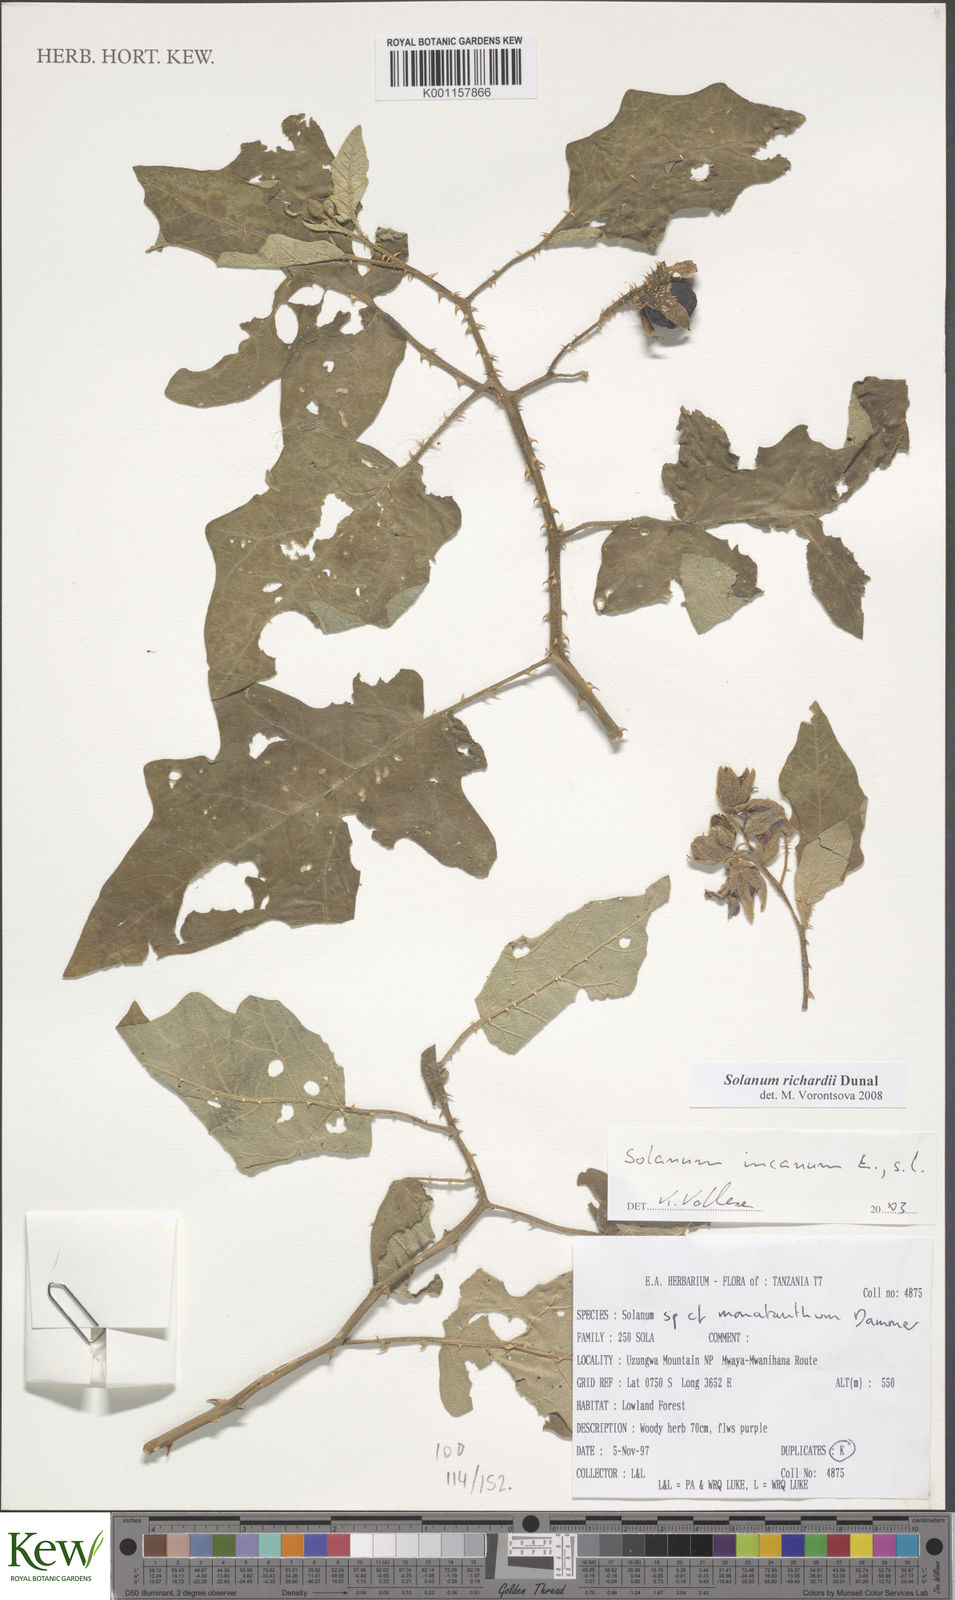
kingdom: Plantae
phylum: Tracheophyta
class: Magnoliopsida
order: Solanales
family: Solanaceae
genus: Solanum
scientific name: Solanum richardii
